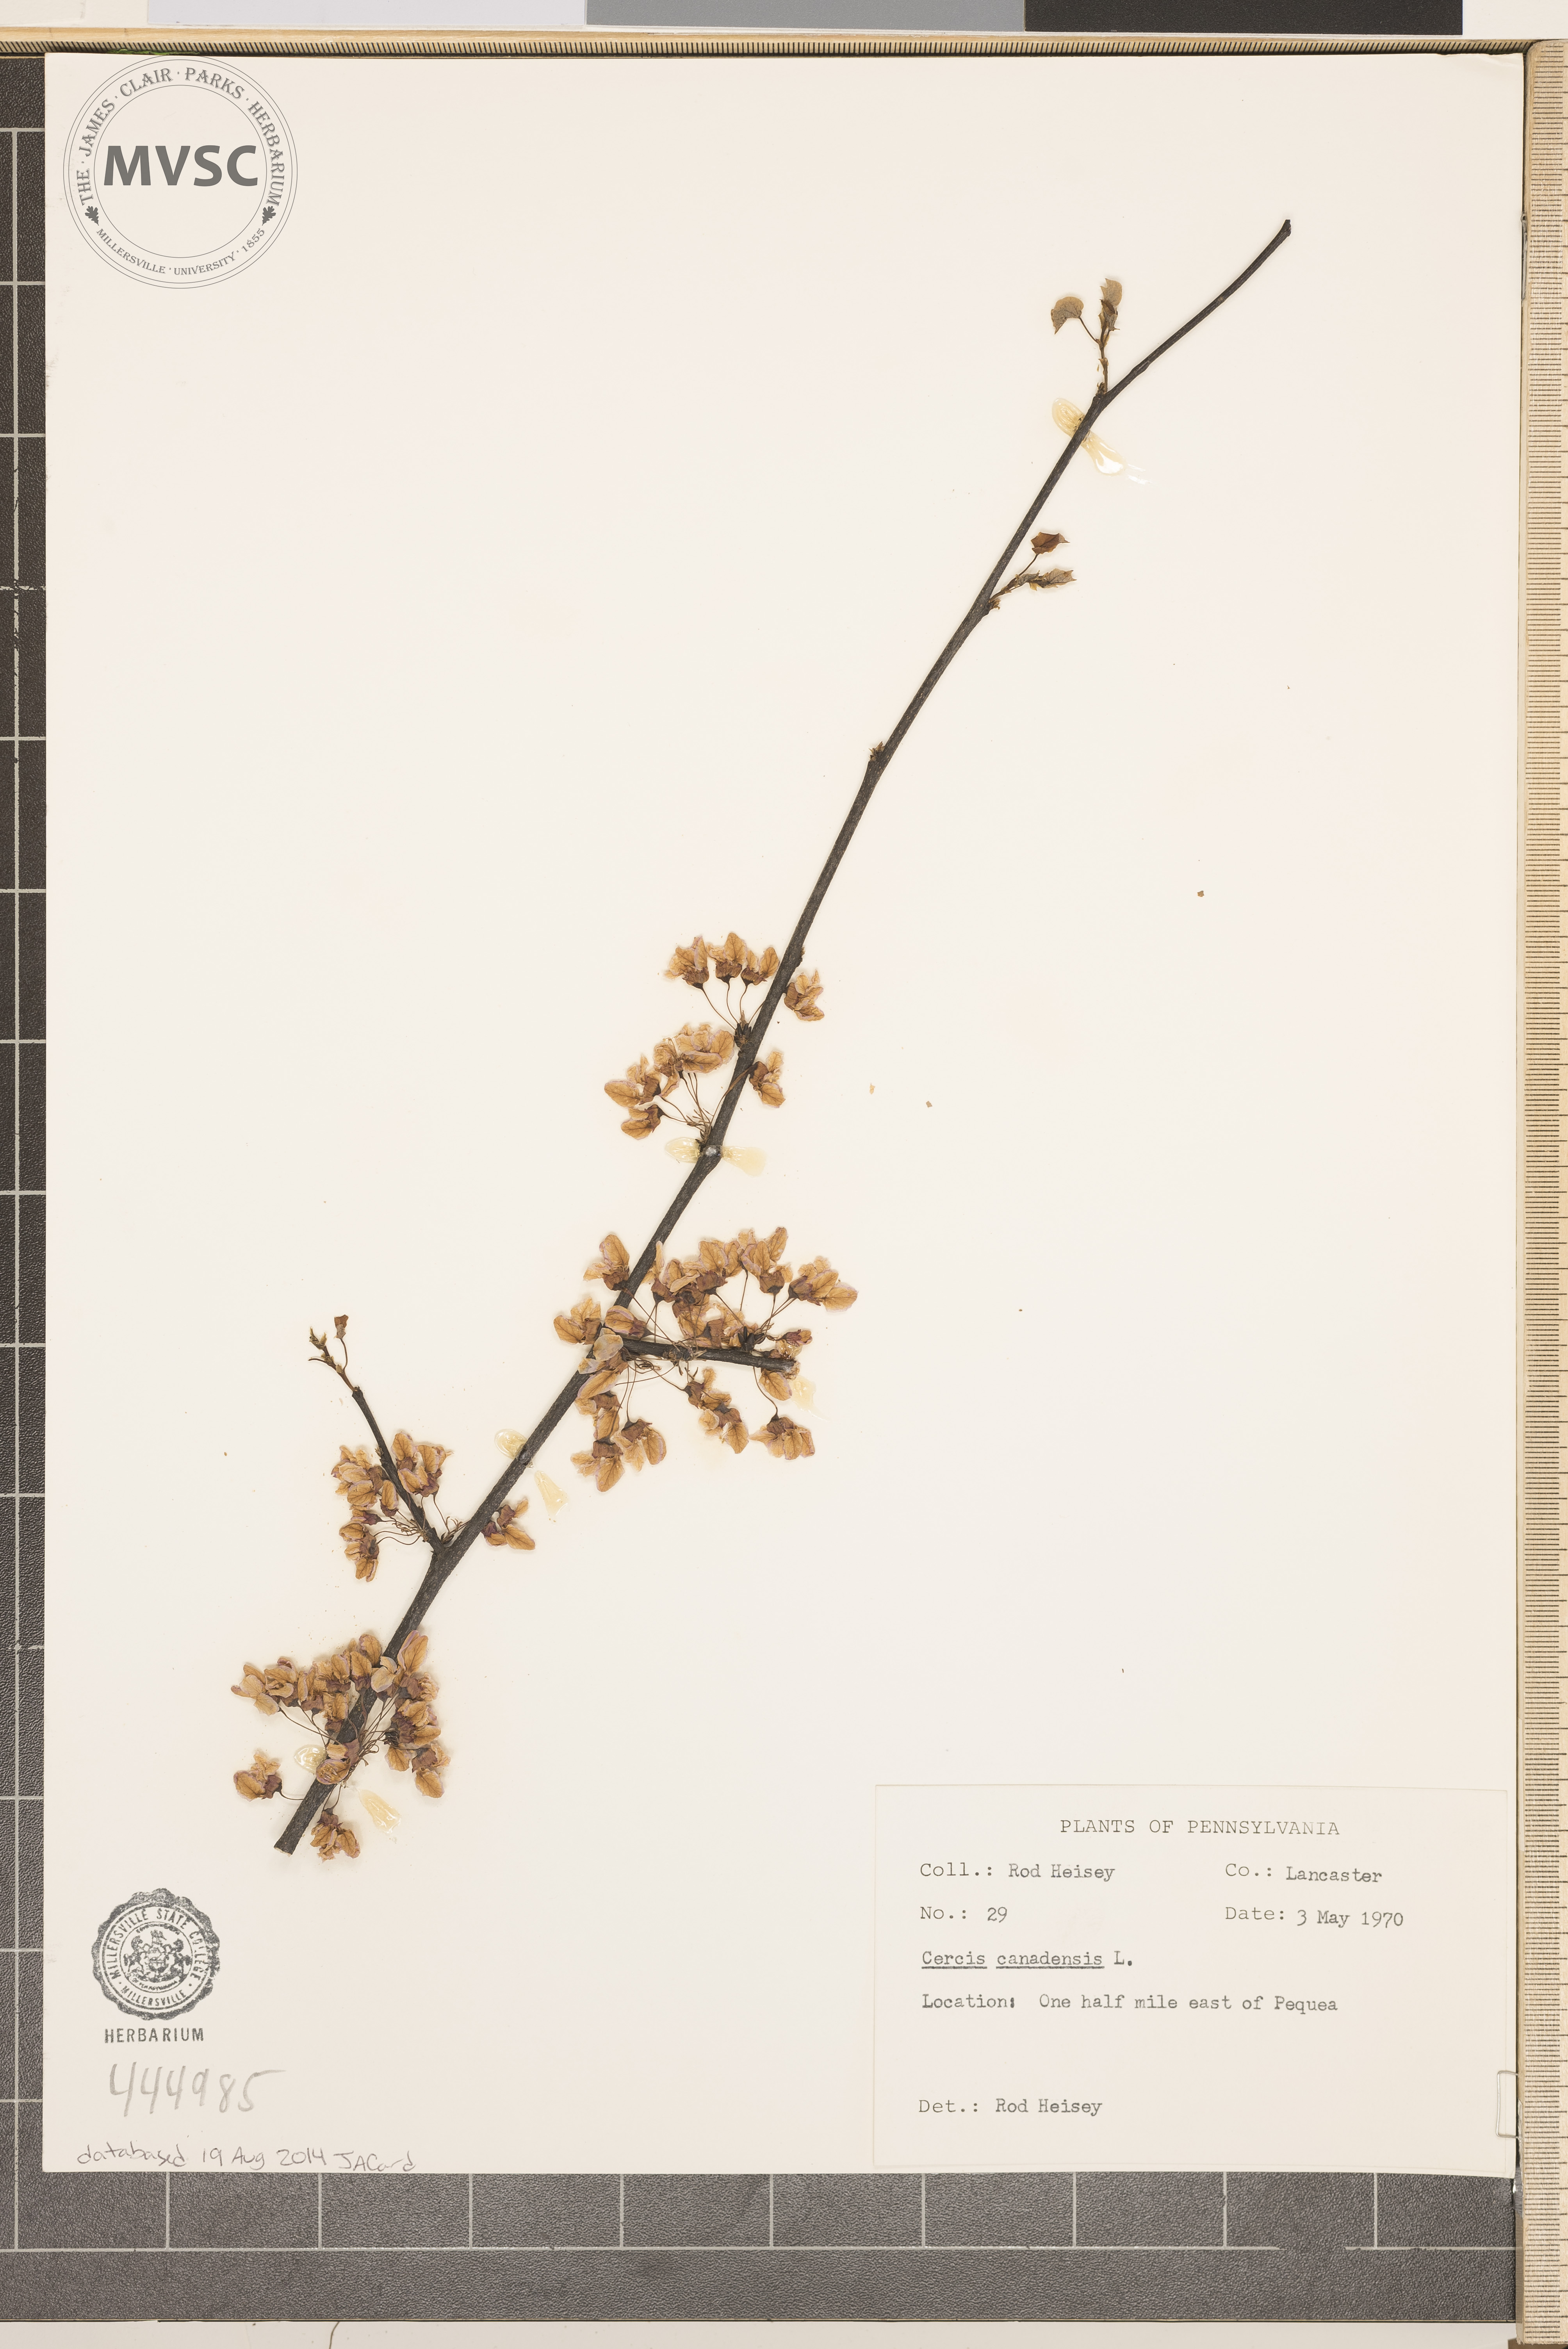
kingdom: Plantae
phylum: Tracheophyta
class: Magnoliopsida
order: Fabales
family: Fabaceae
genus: Cercis
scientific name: Cercis canadensis
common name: Eastern redbud
